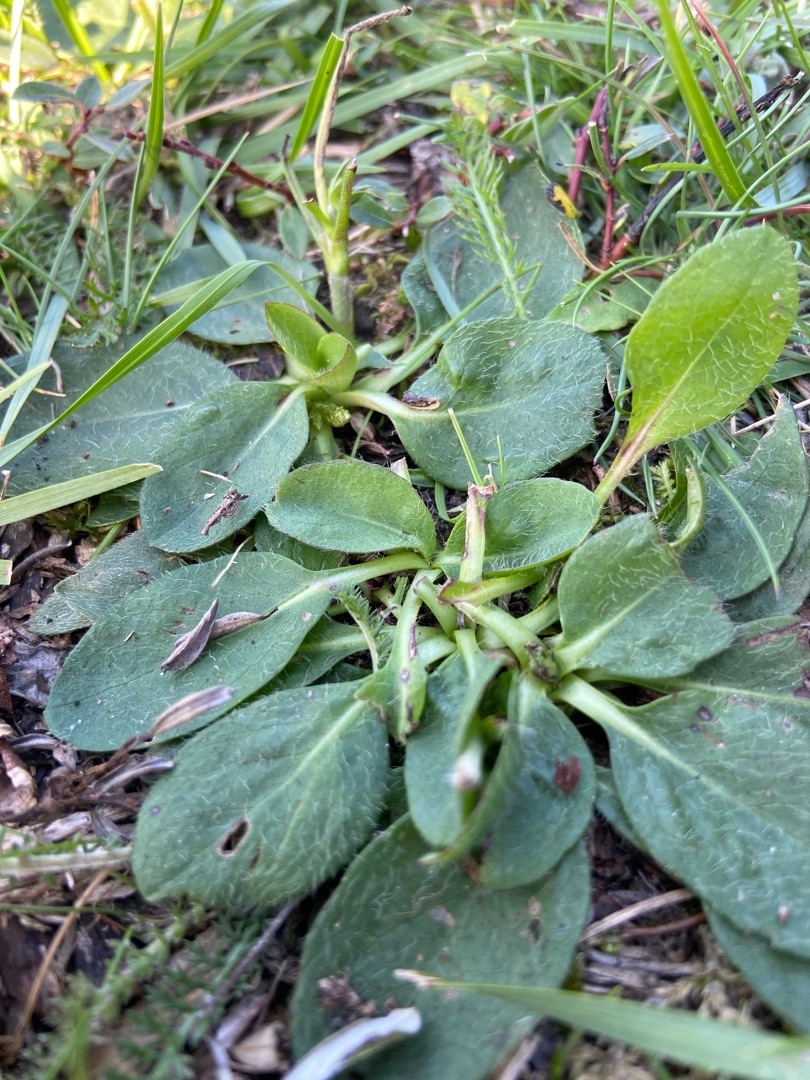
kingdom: Plantae
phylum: Tracheophyta
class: Magnoliopsida
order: Dipsacales
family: Caprifoliaceae
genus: Succisa
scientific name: Succisa pratensis
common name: Djævelsbid
